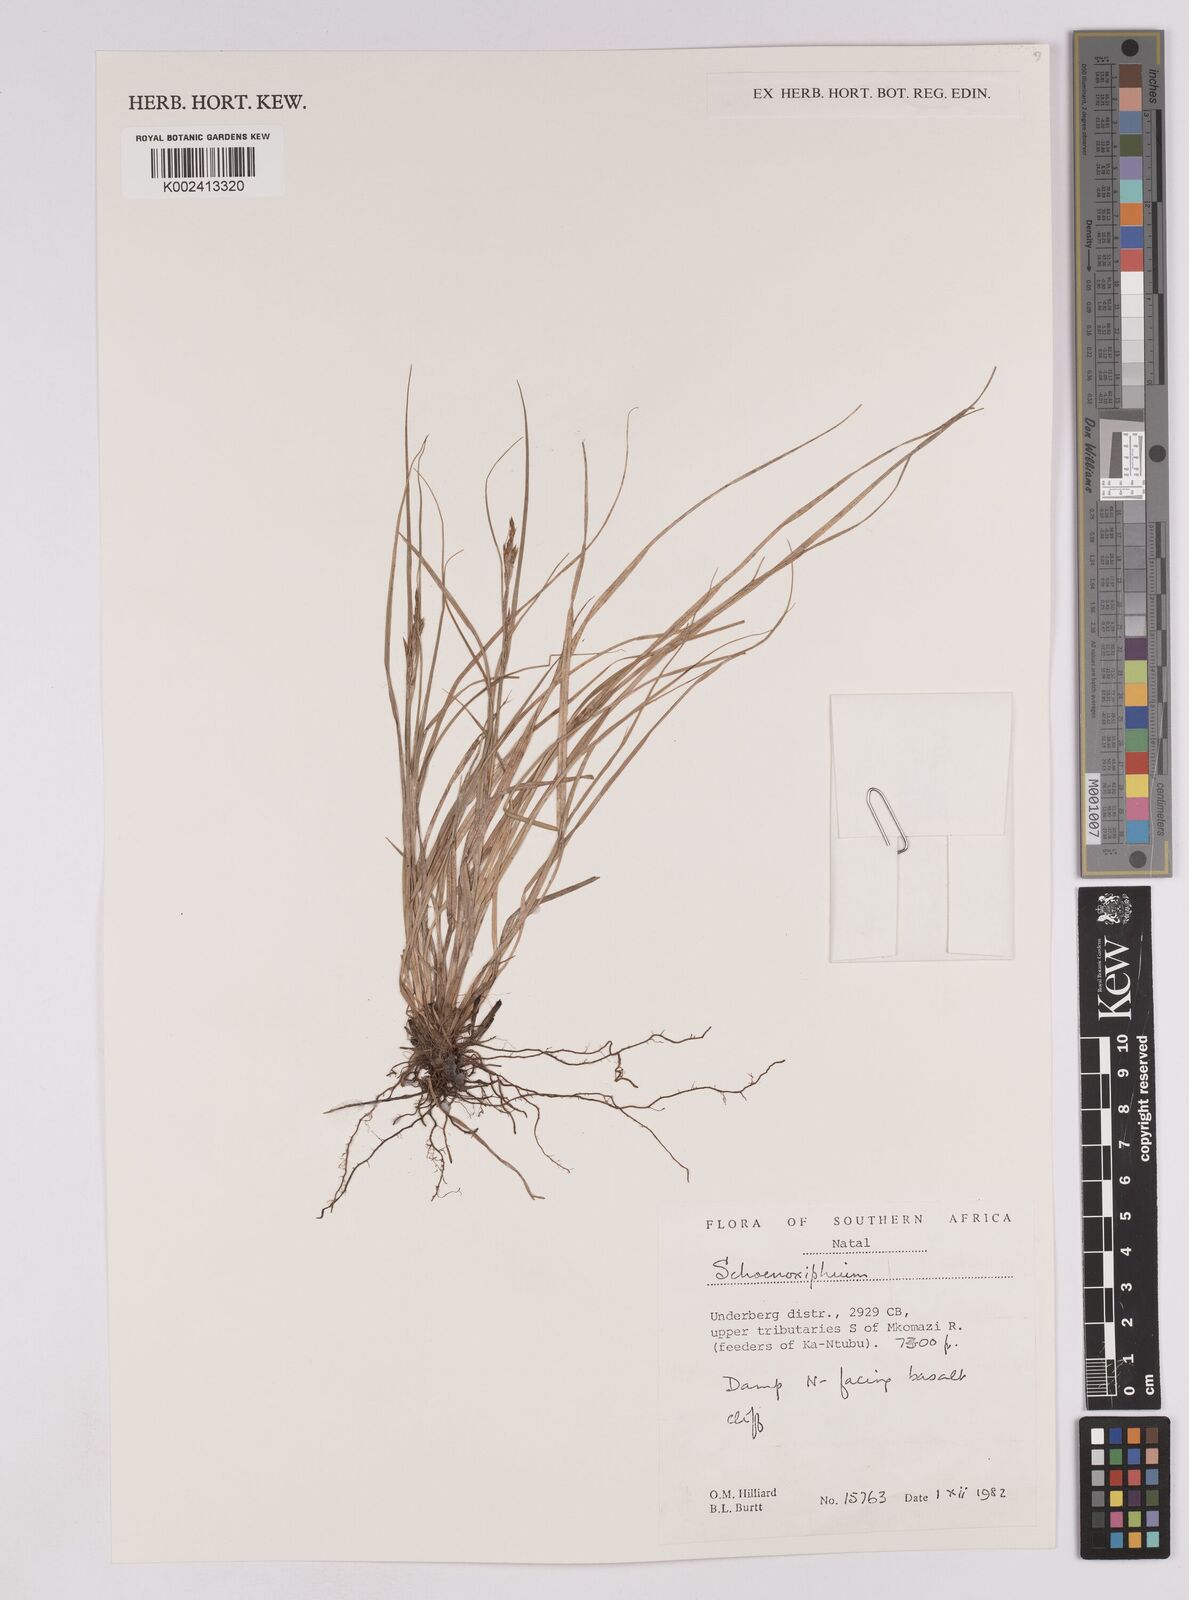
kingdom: Plantae
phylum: Tracheophyta
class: Liliopsida
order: Poales
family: Cyperaceae
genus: Carex
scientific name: Carex
